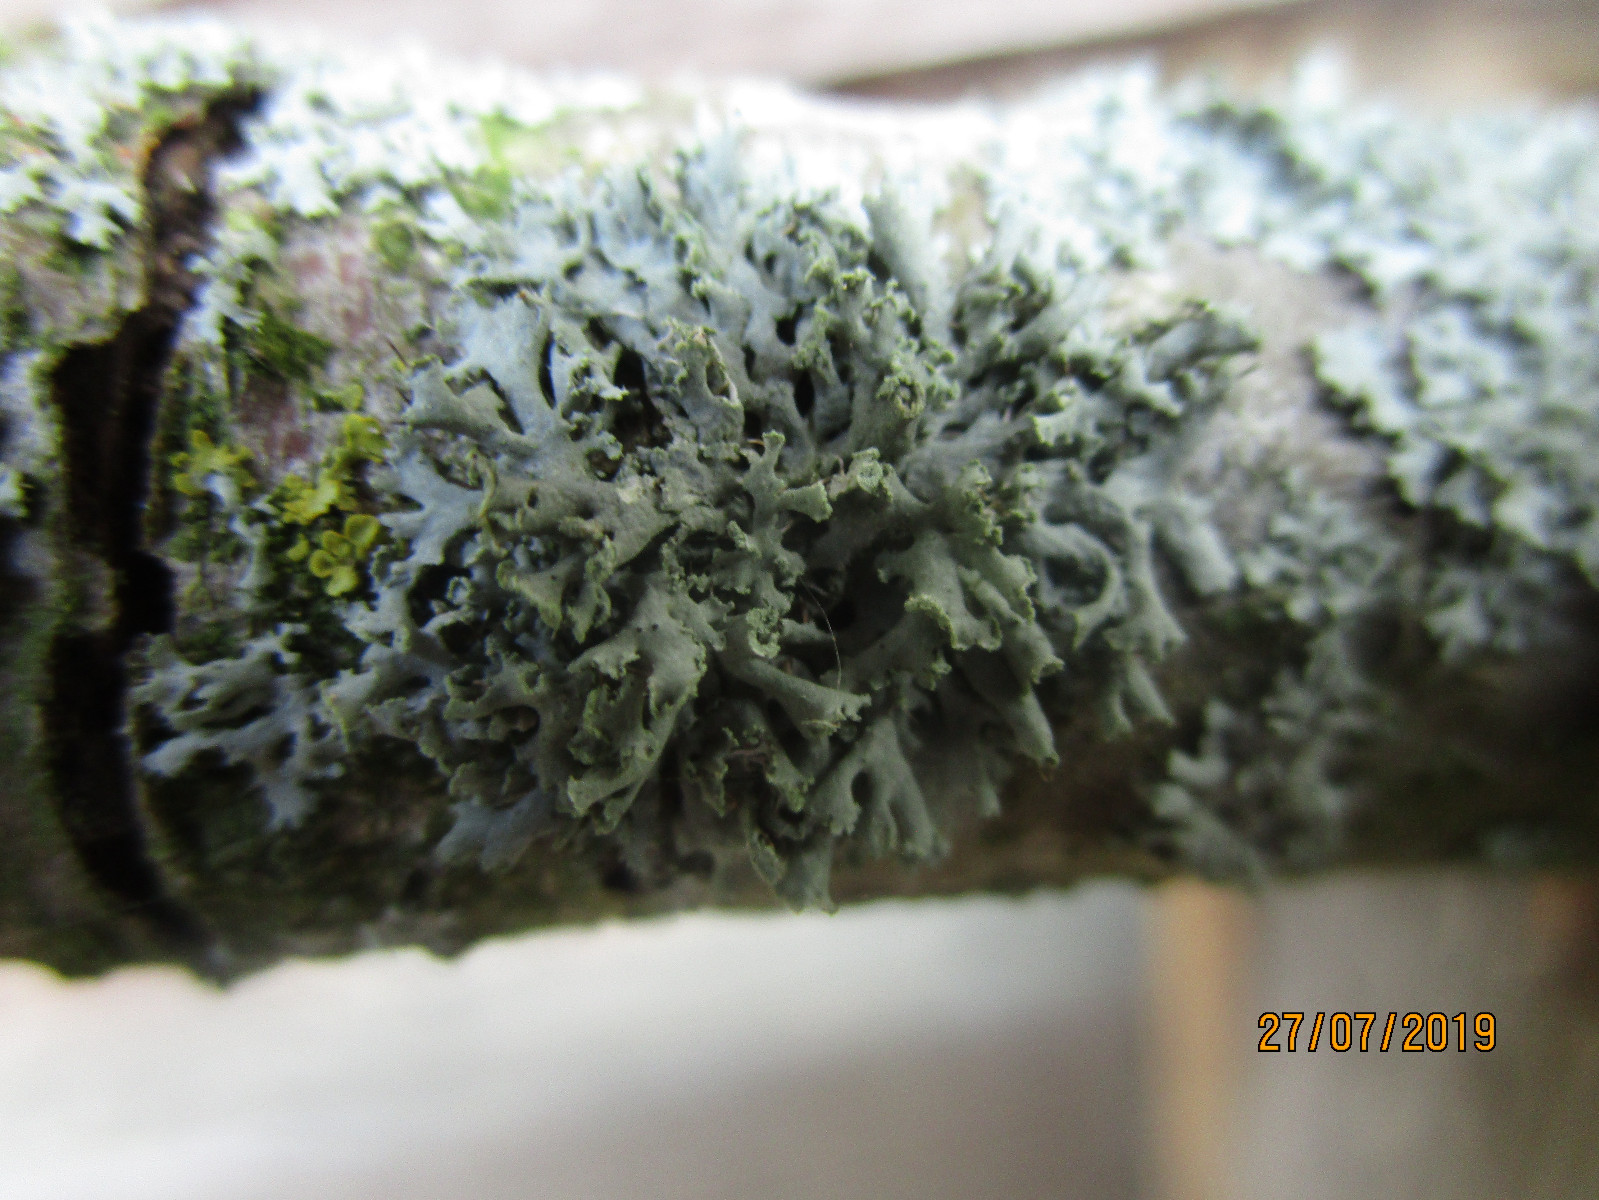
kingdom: Fungi
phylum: Ascomycota
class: Lecanoromycetes
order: Caliciales
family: Physciaceae
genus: Physcia
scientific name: Physcia tenella
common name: spæd rosetlav
